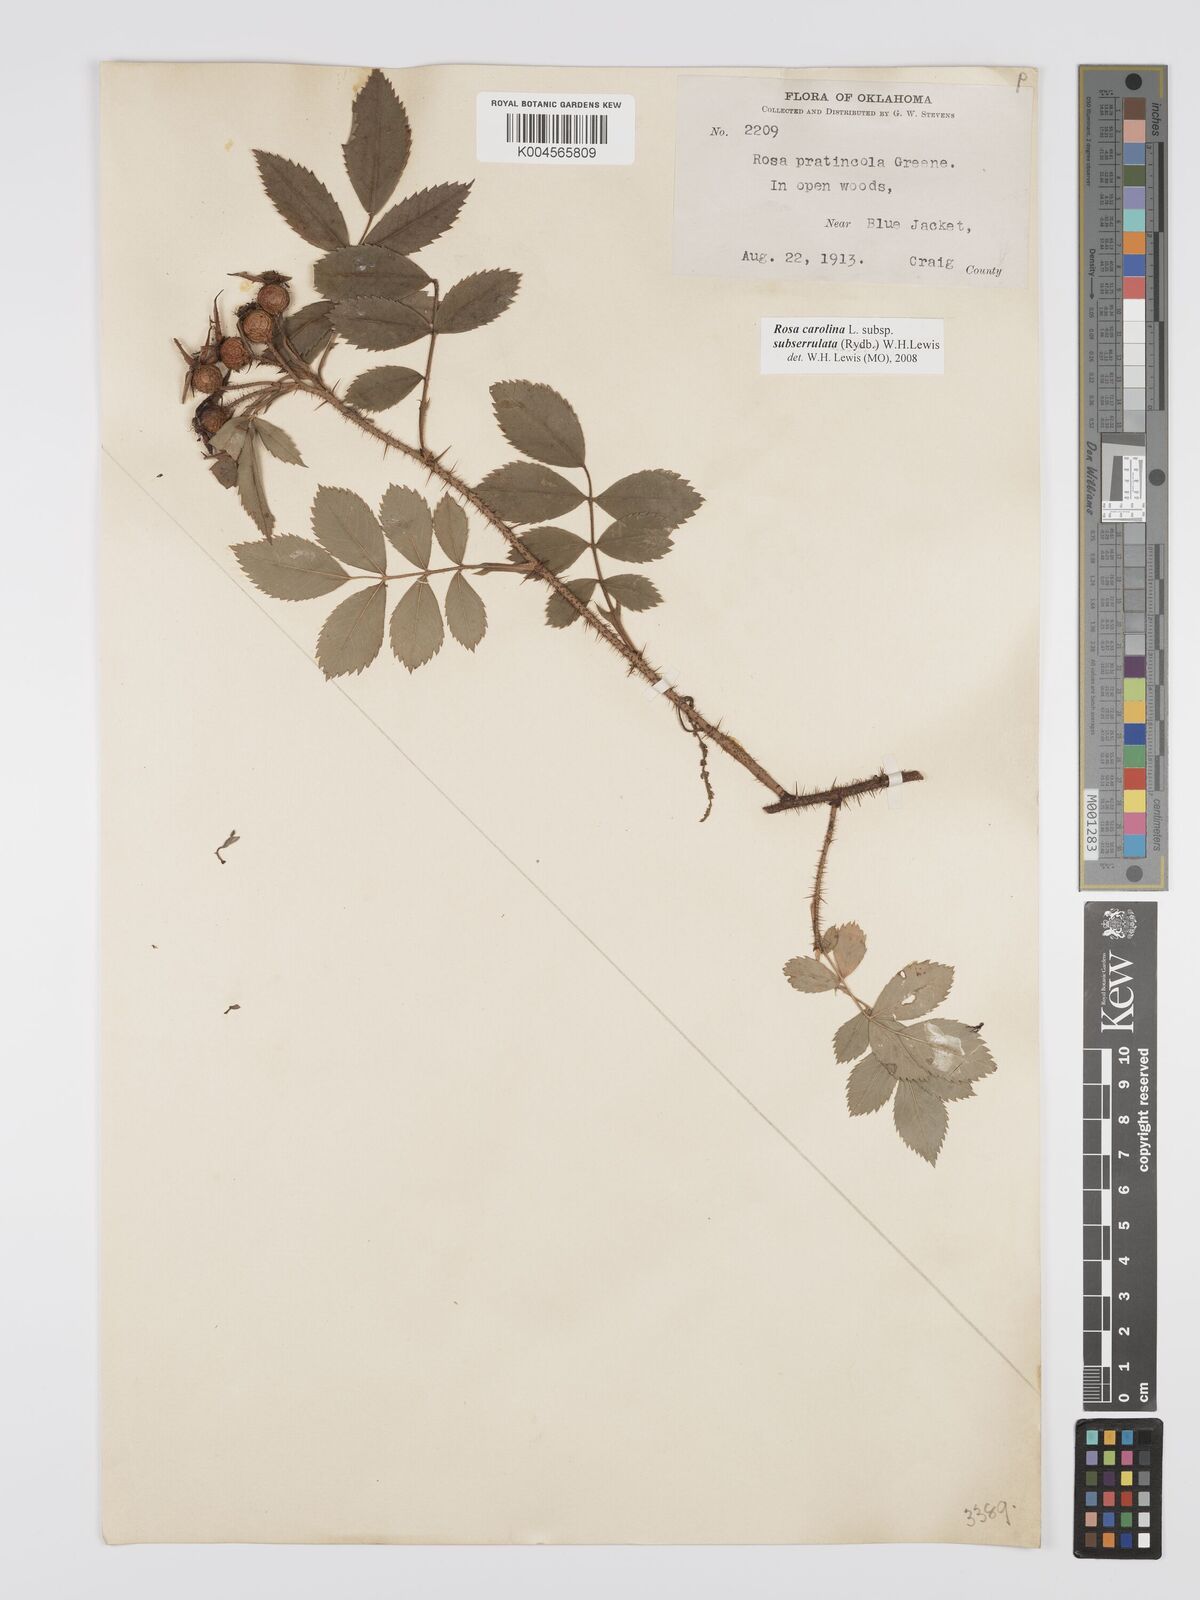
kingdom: Plantae
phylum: Tracheophyta
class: Magnoliopsida
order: Rosales
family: Rosaceae
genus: Rosa
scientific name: Rosa carolina
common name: Pasture rose
